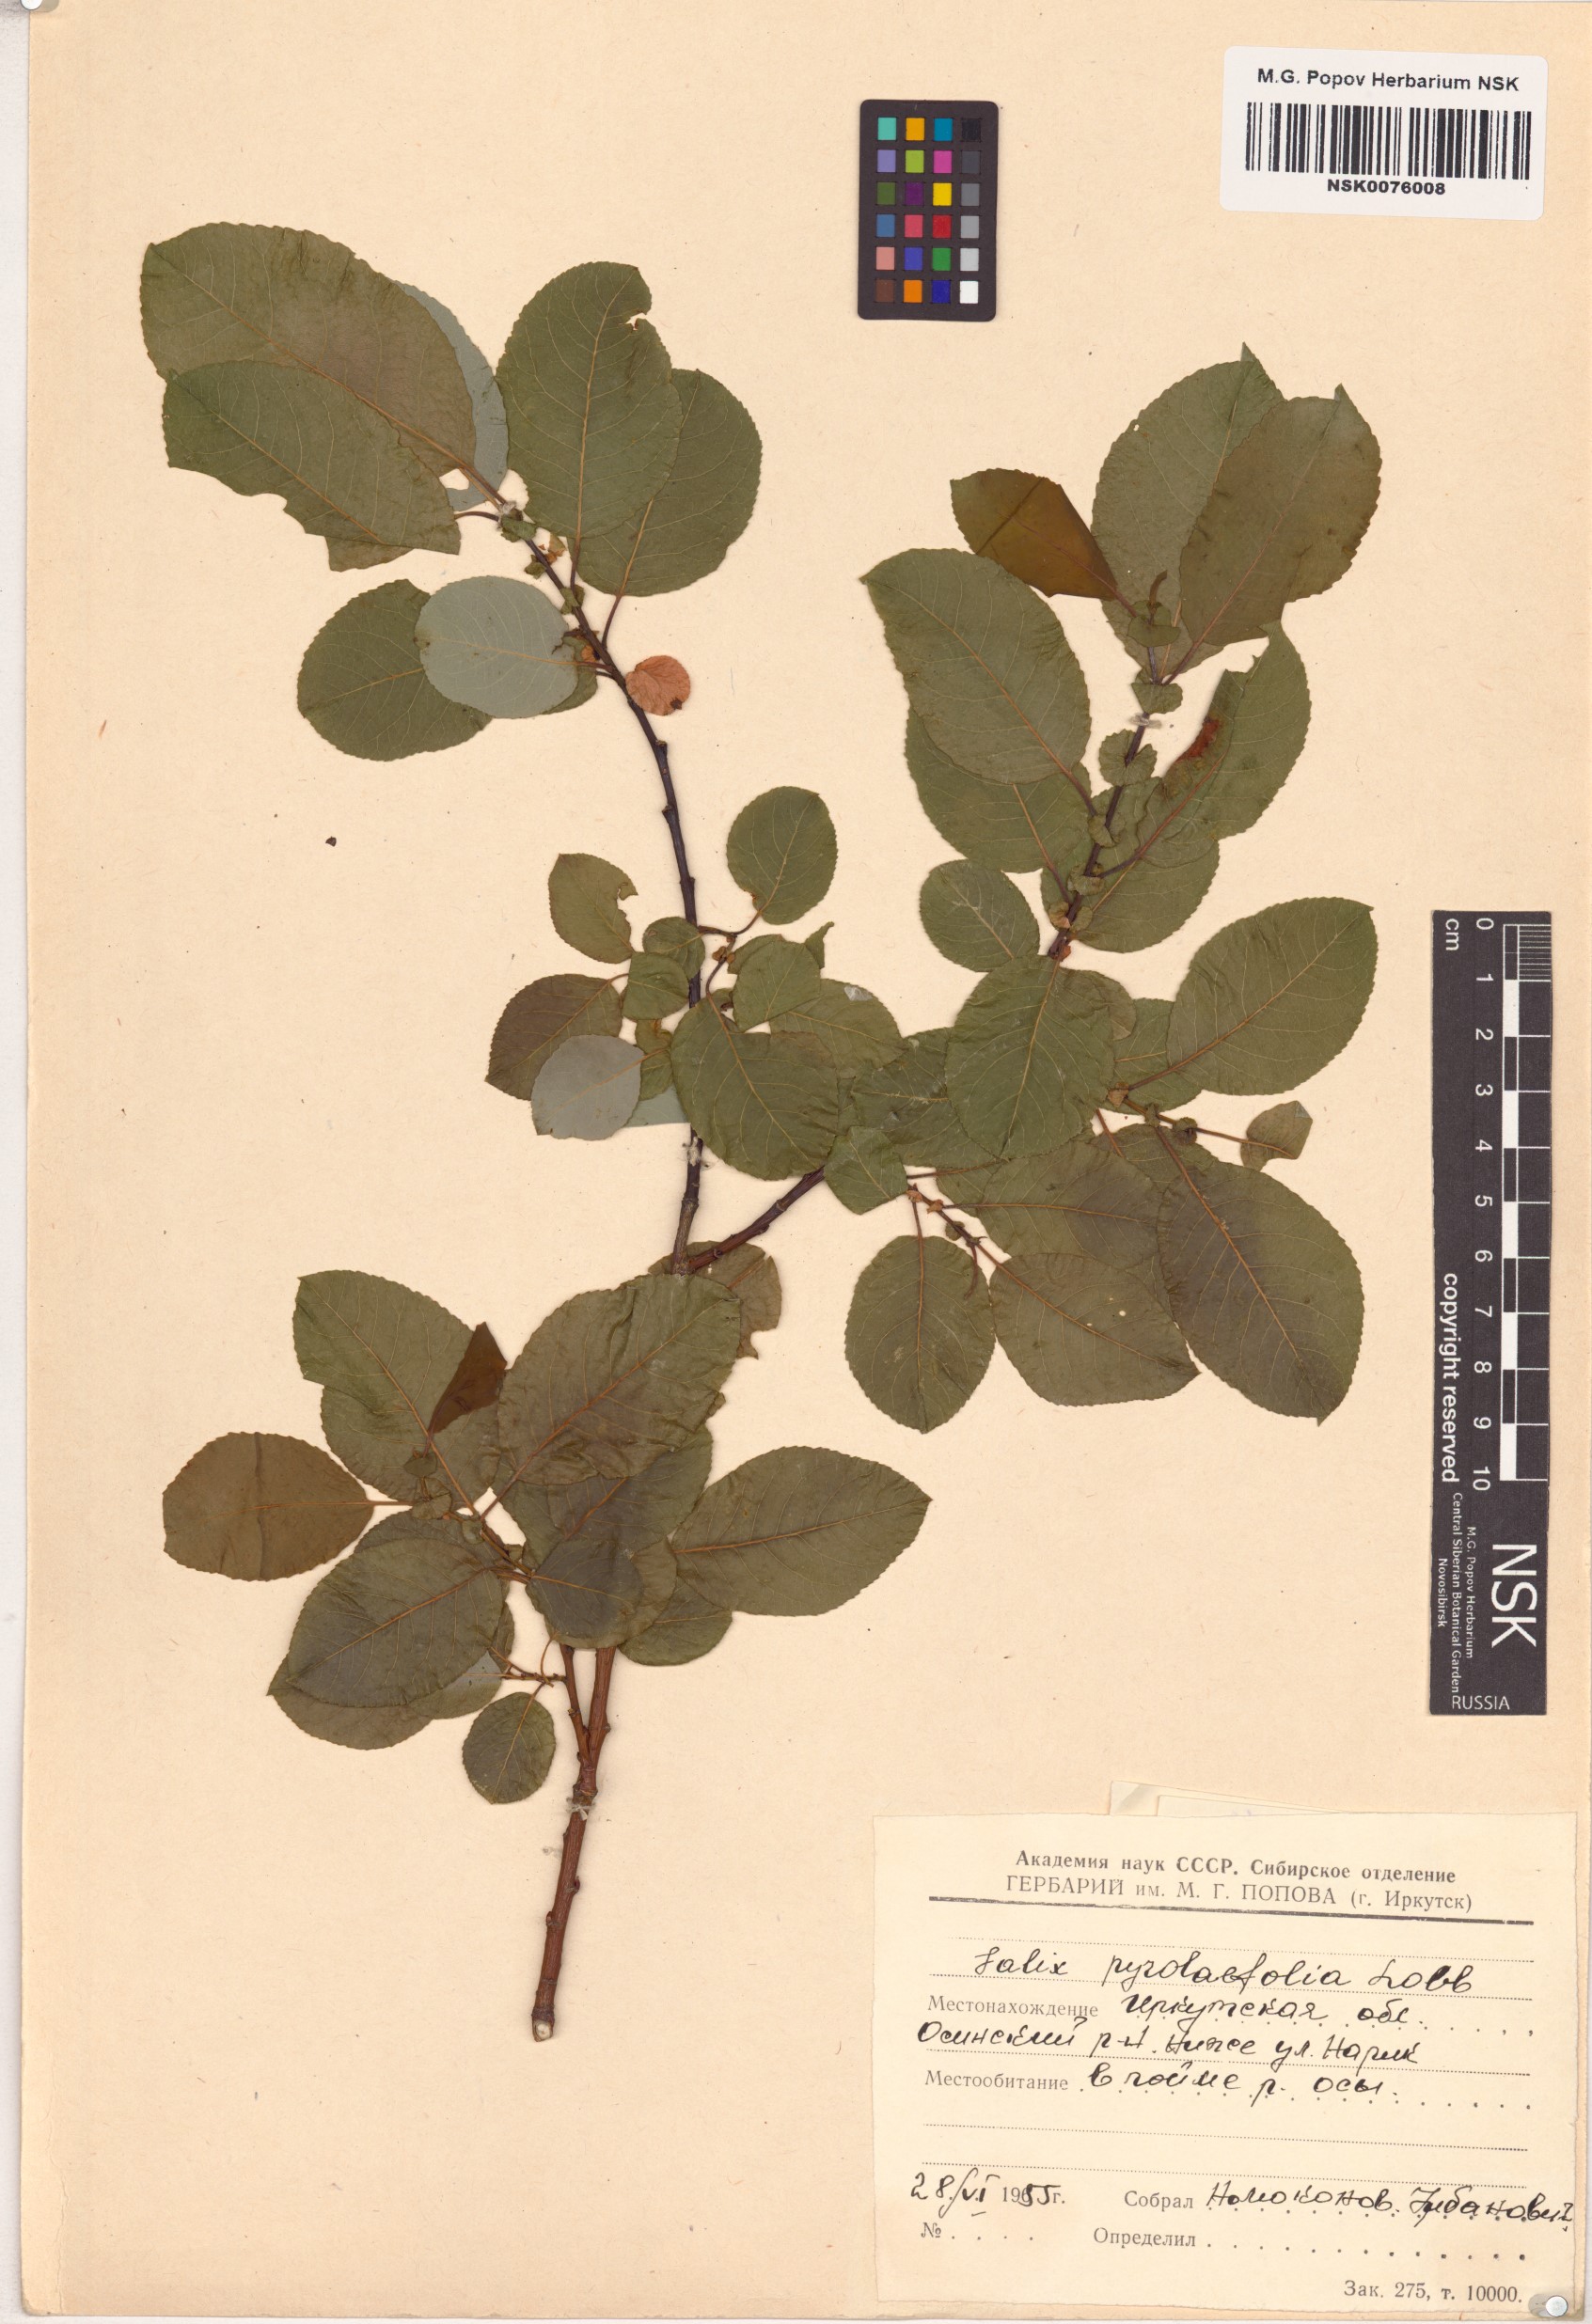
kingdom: Plantae
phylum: Tracheophyta
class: Magnoliopsida
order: Malpighiales
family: Salicaceae
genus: Salix
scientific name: Salix pyrolifolia
